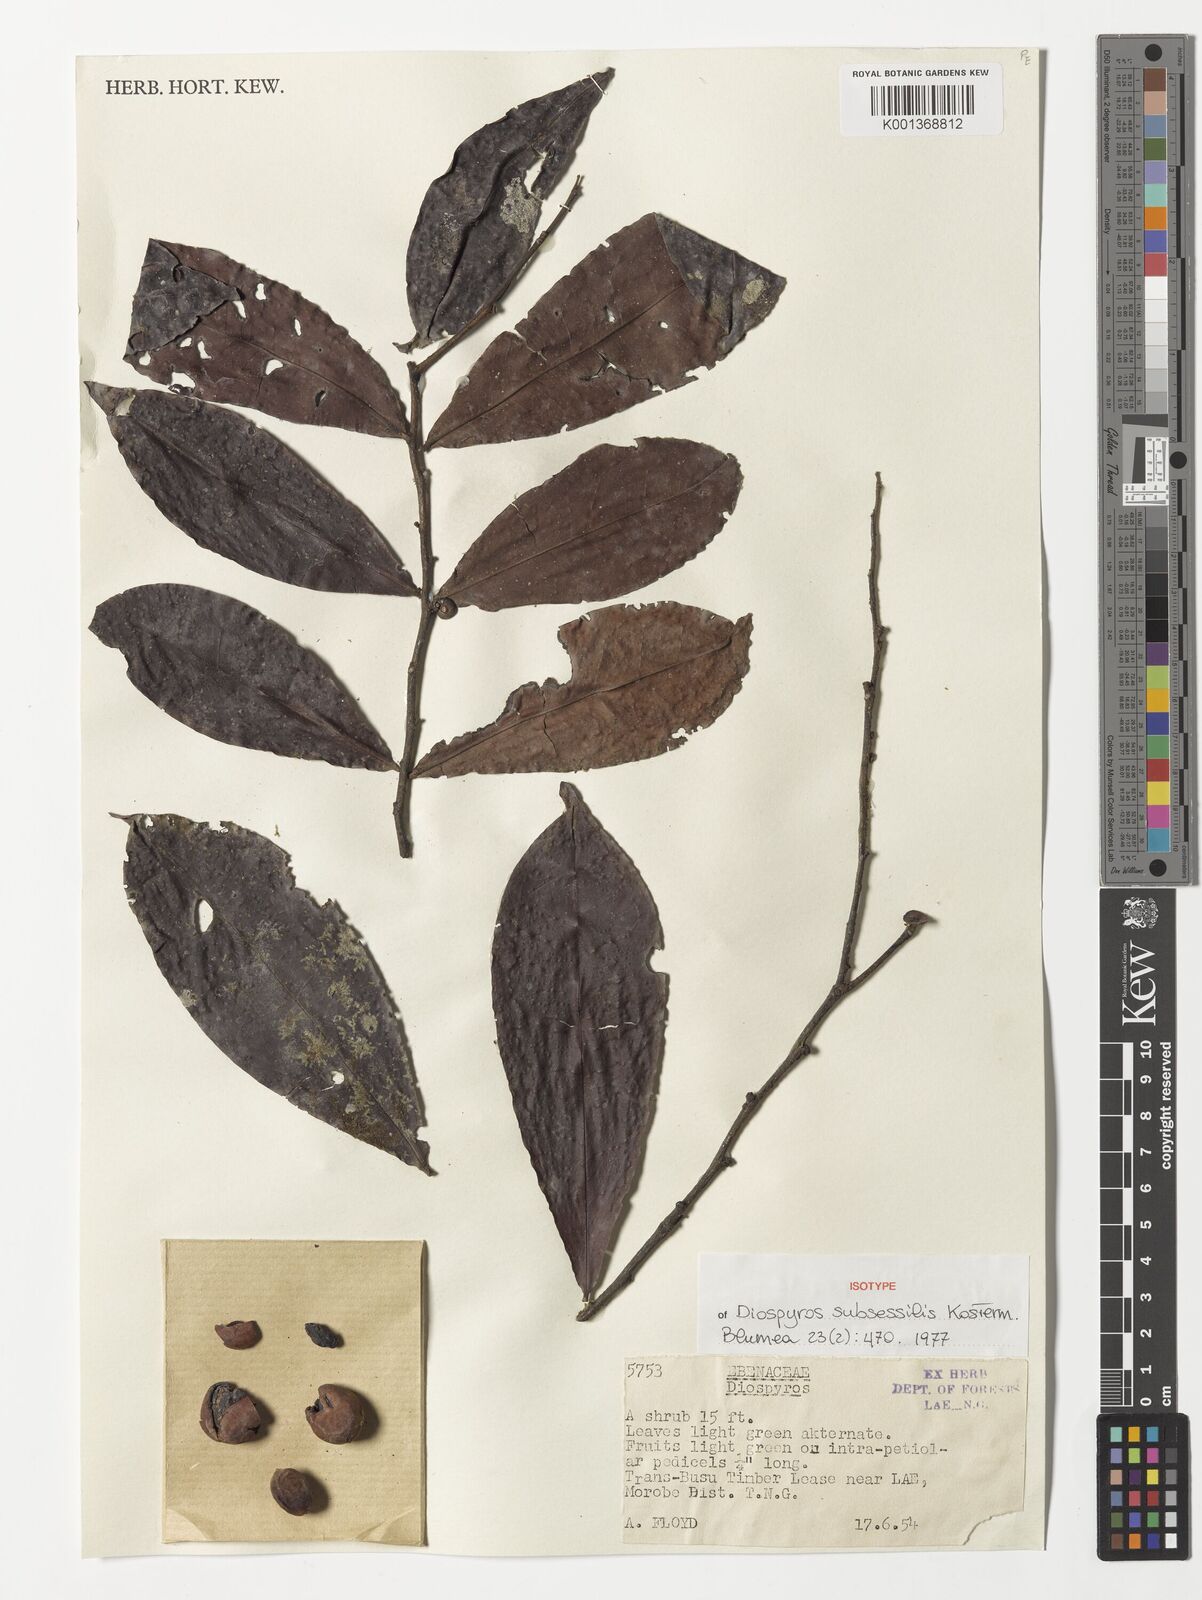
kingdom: Plantae
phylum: Tracheophyta
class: Magnoliopsida
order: Ericales
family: Ebenaceae
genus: Diospyros
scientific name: Diospyros subsessilis
